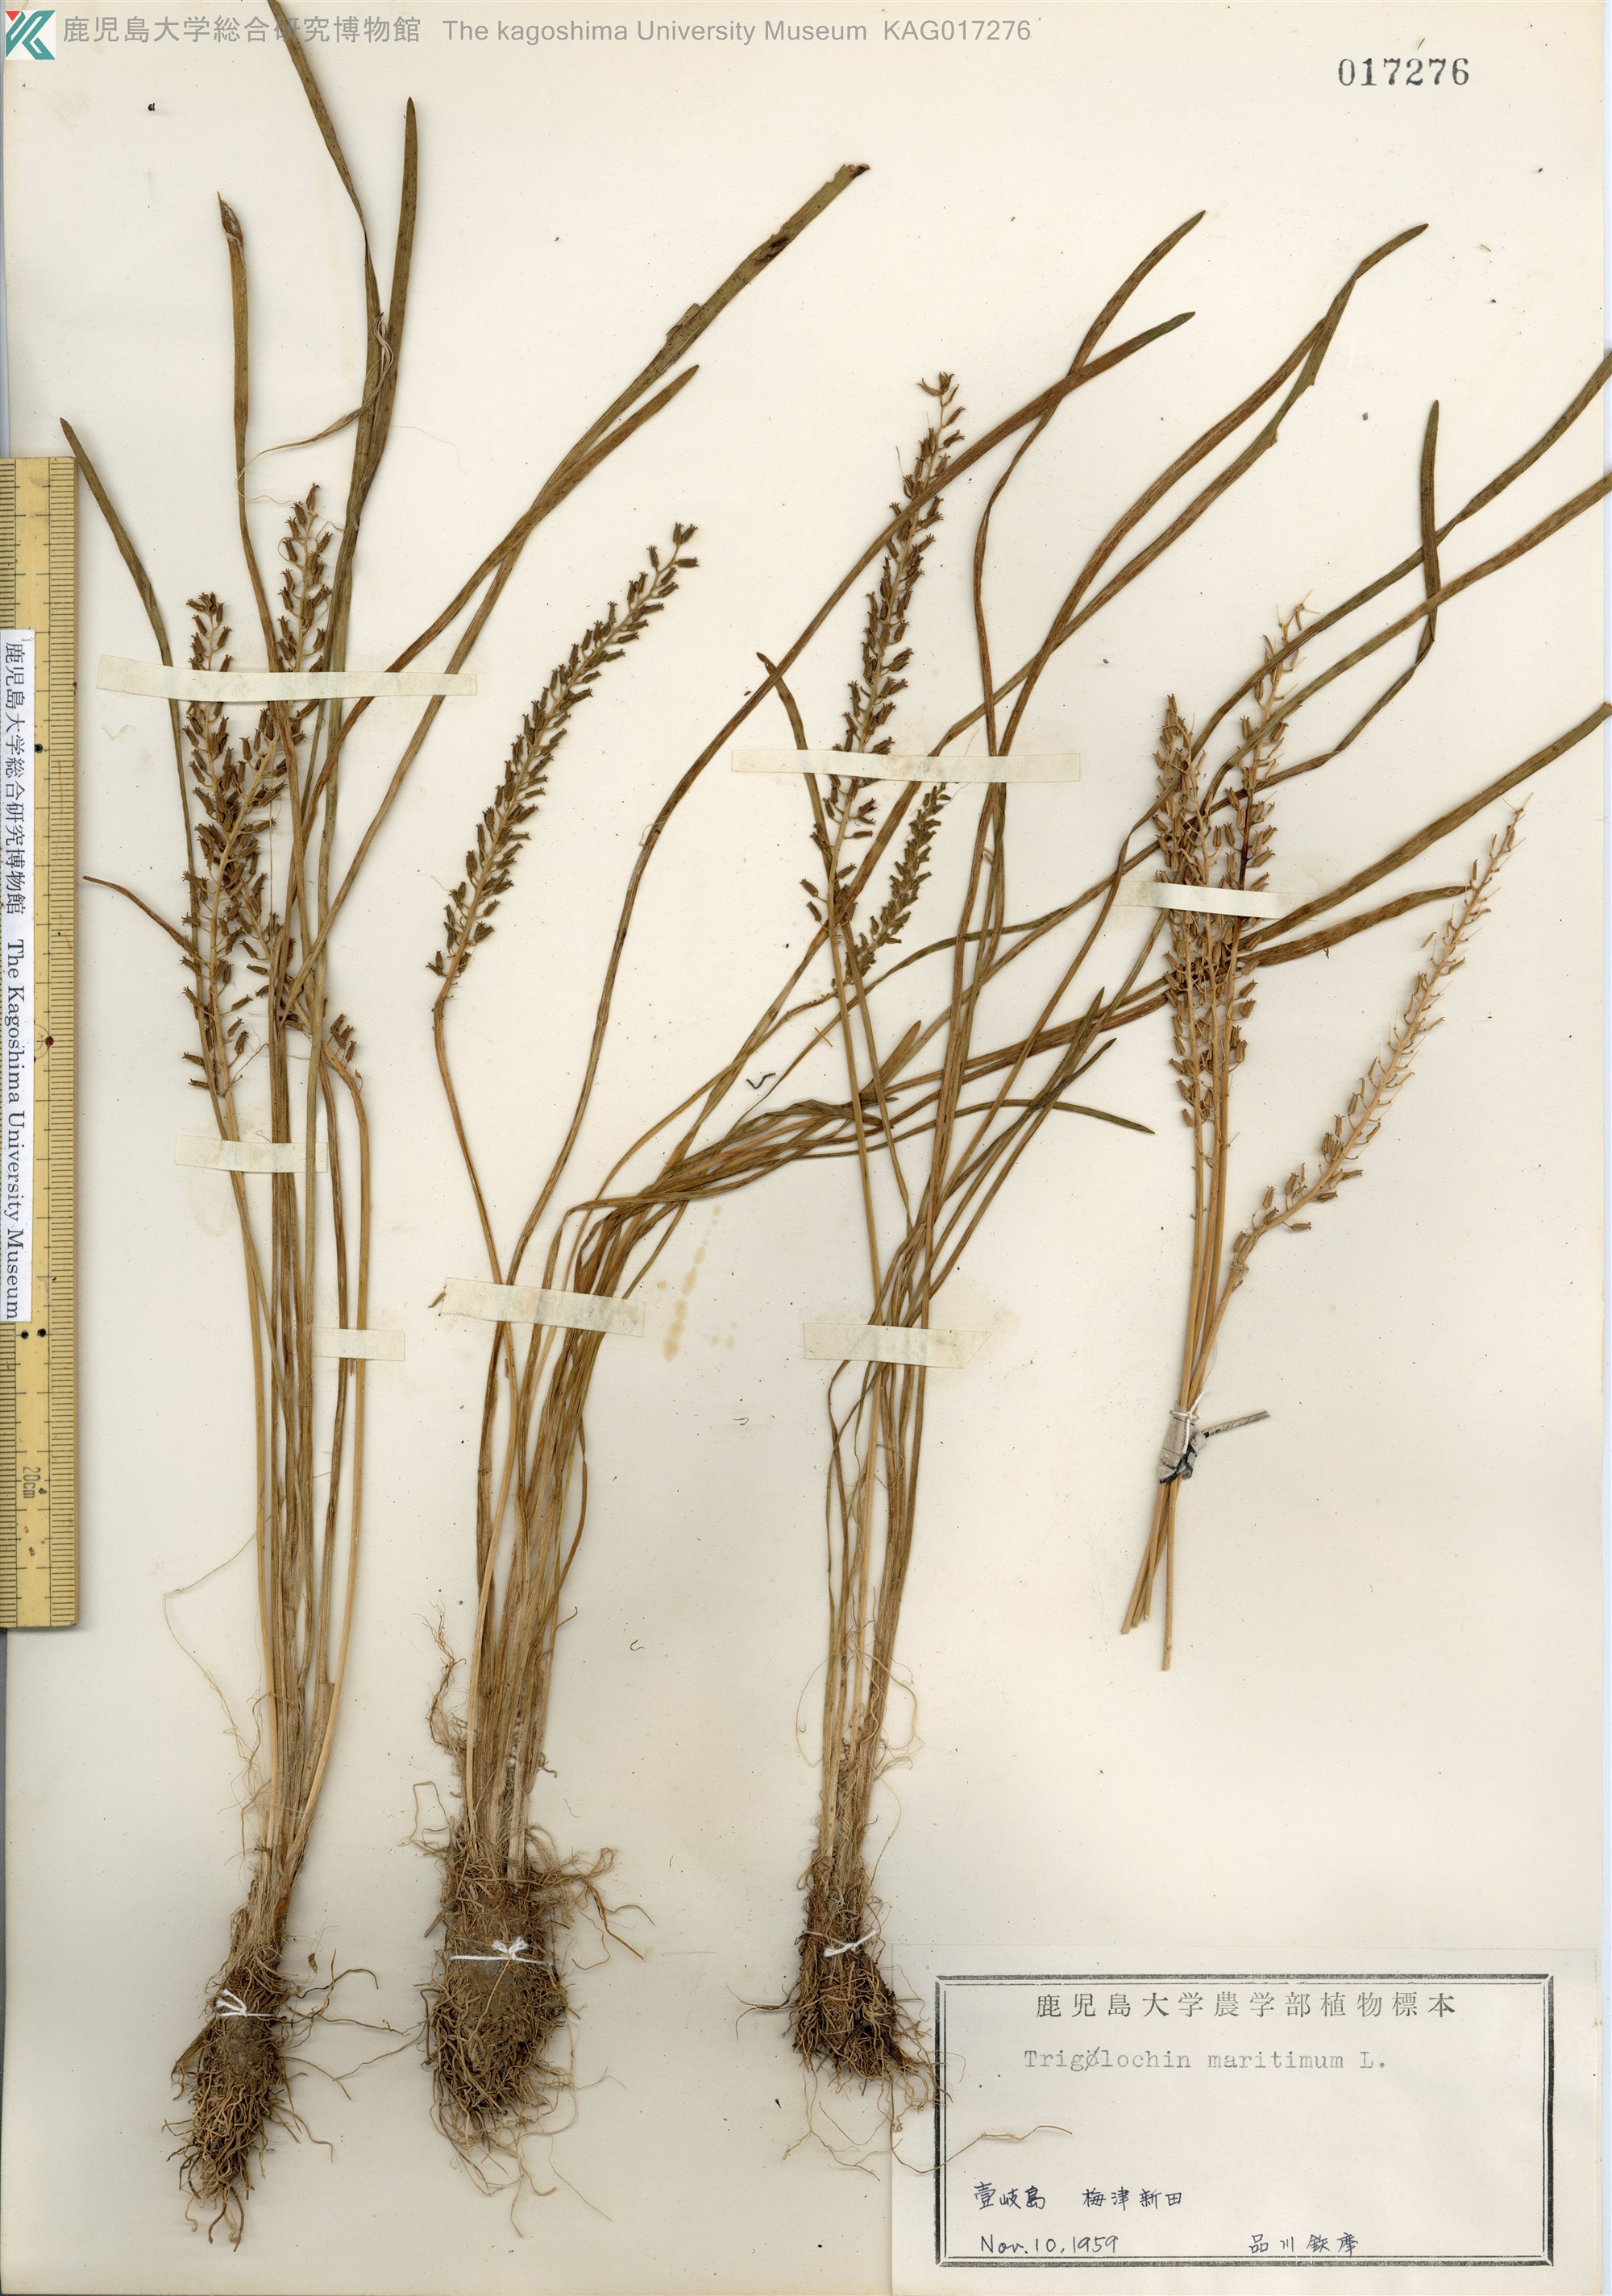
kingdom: Plantae
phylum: Tracheophyta
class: Liliopsida
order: Alismatales
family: Juncaginaceae
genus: Triglochin
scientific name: Triglochin maritima
